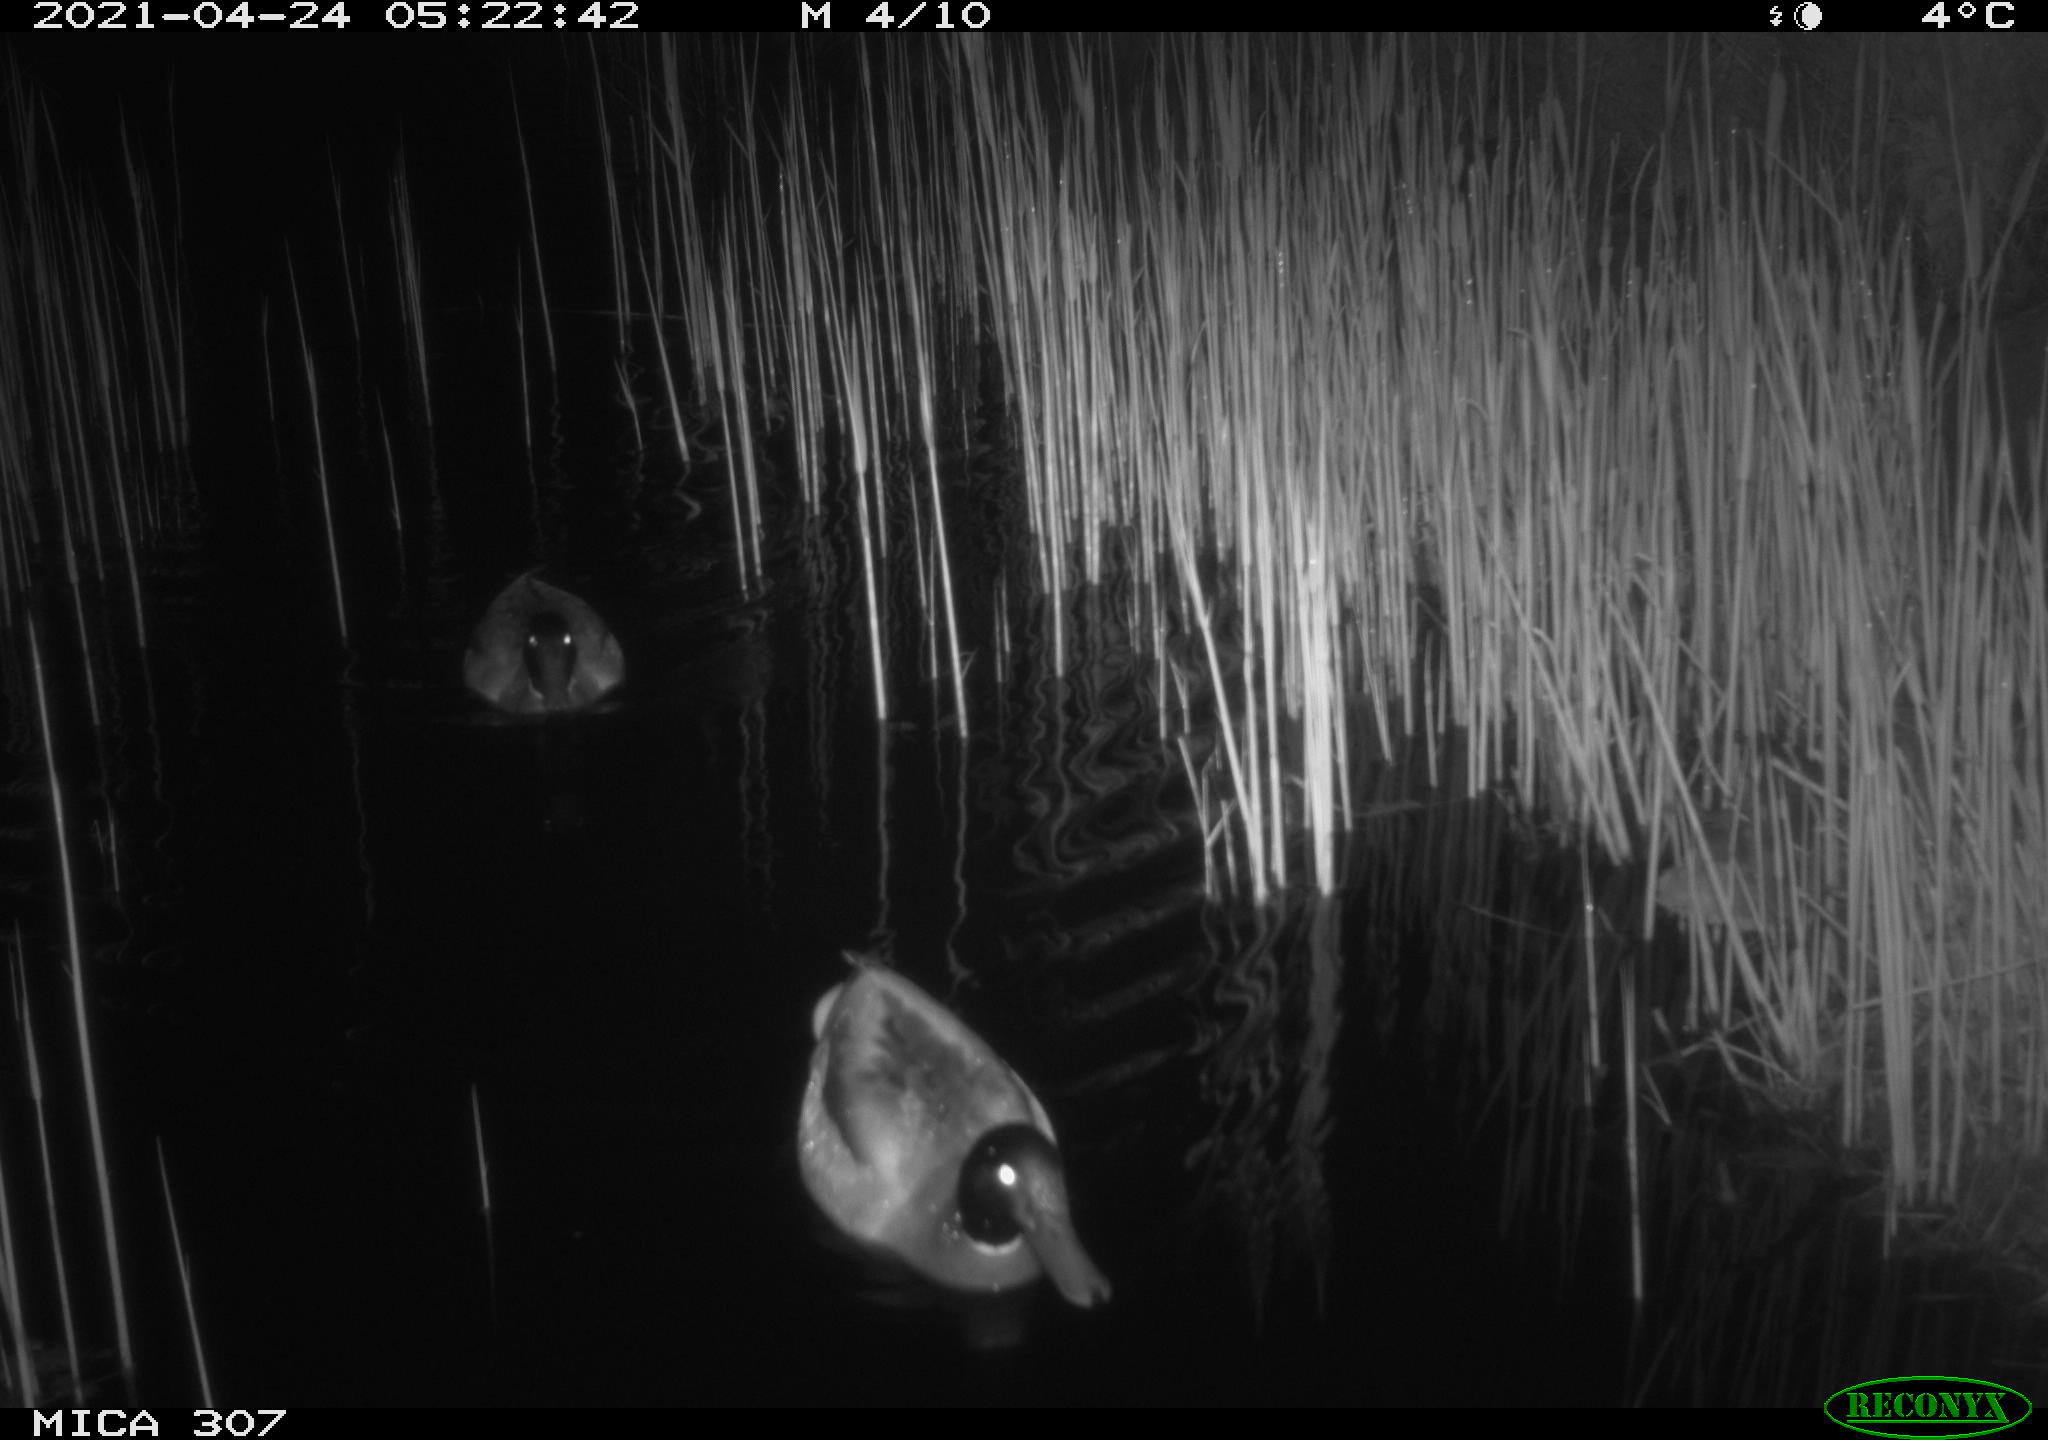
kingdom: Animalia
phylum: Chordata
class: Aves
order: Anseriformes
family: Anatidae
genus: Anas
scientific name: Anas platyrhynchos
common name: Mallard
